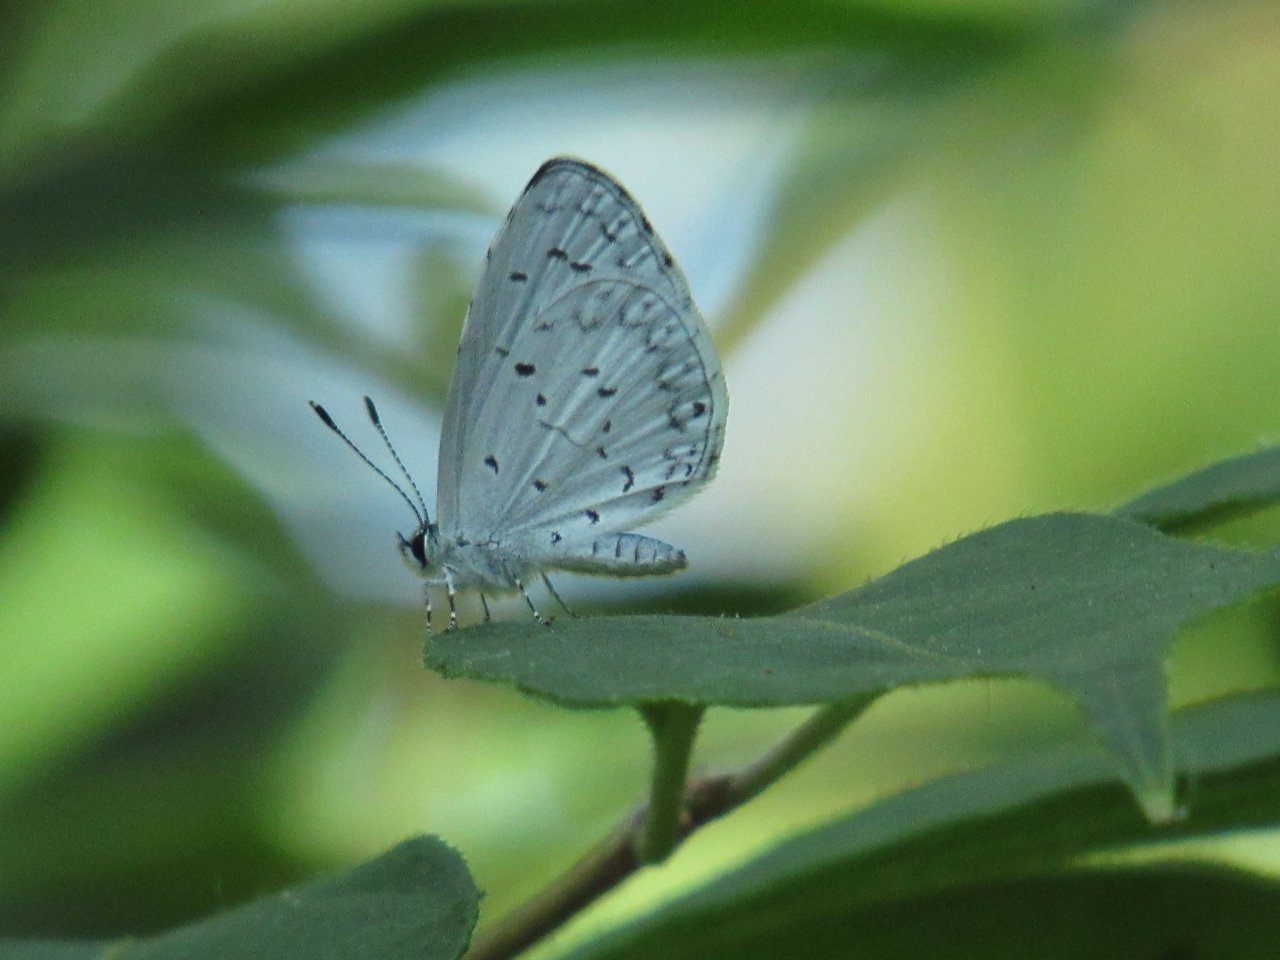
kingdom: Animalia
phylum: Arthropoda
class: Insecta
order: Lepidoptera
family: Lycaenidae
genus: Cyaniris
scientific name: Cyaniris neglecta
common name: Summer Azure
